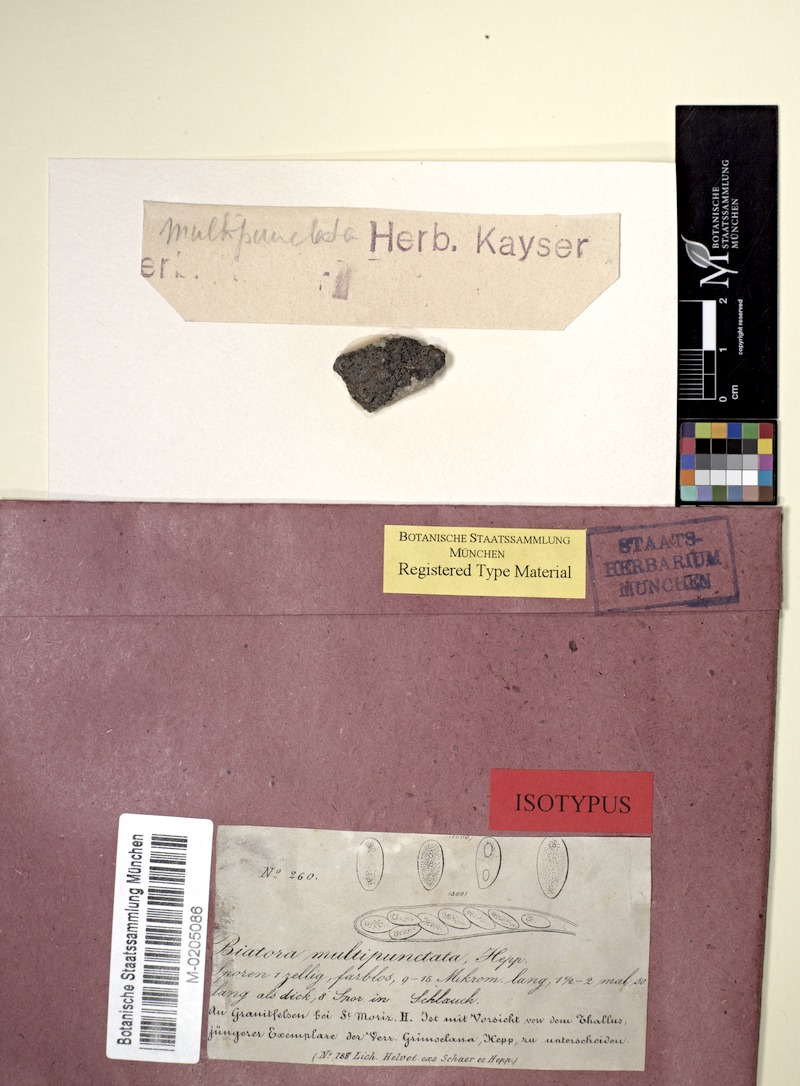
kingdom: Fungi
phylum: Ascomycota
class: Lecanoromycetes
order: Lecideales
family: Lecideaceae
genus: Lecidea
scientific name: Lecidea
